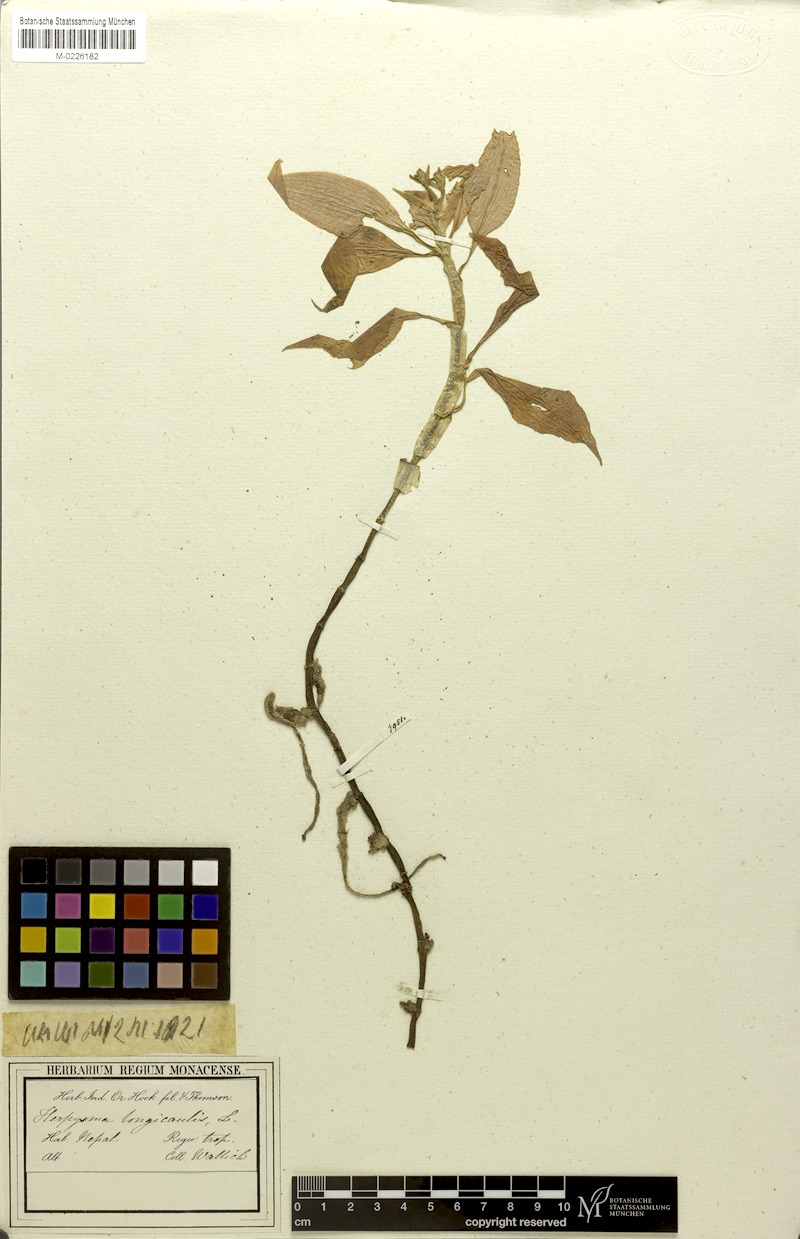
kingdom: Plantae
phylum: Tracheophyta
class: Liliopsida
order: Asparagales
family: Orchidaceae
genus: Herpysma
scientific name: Herpysma longicaulis
